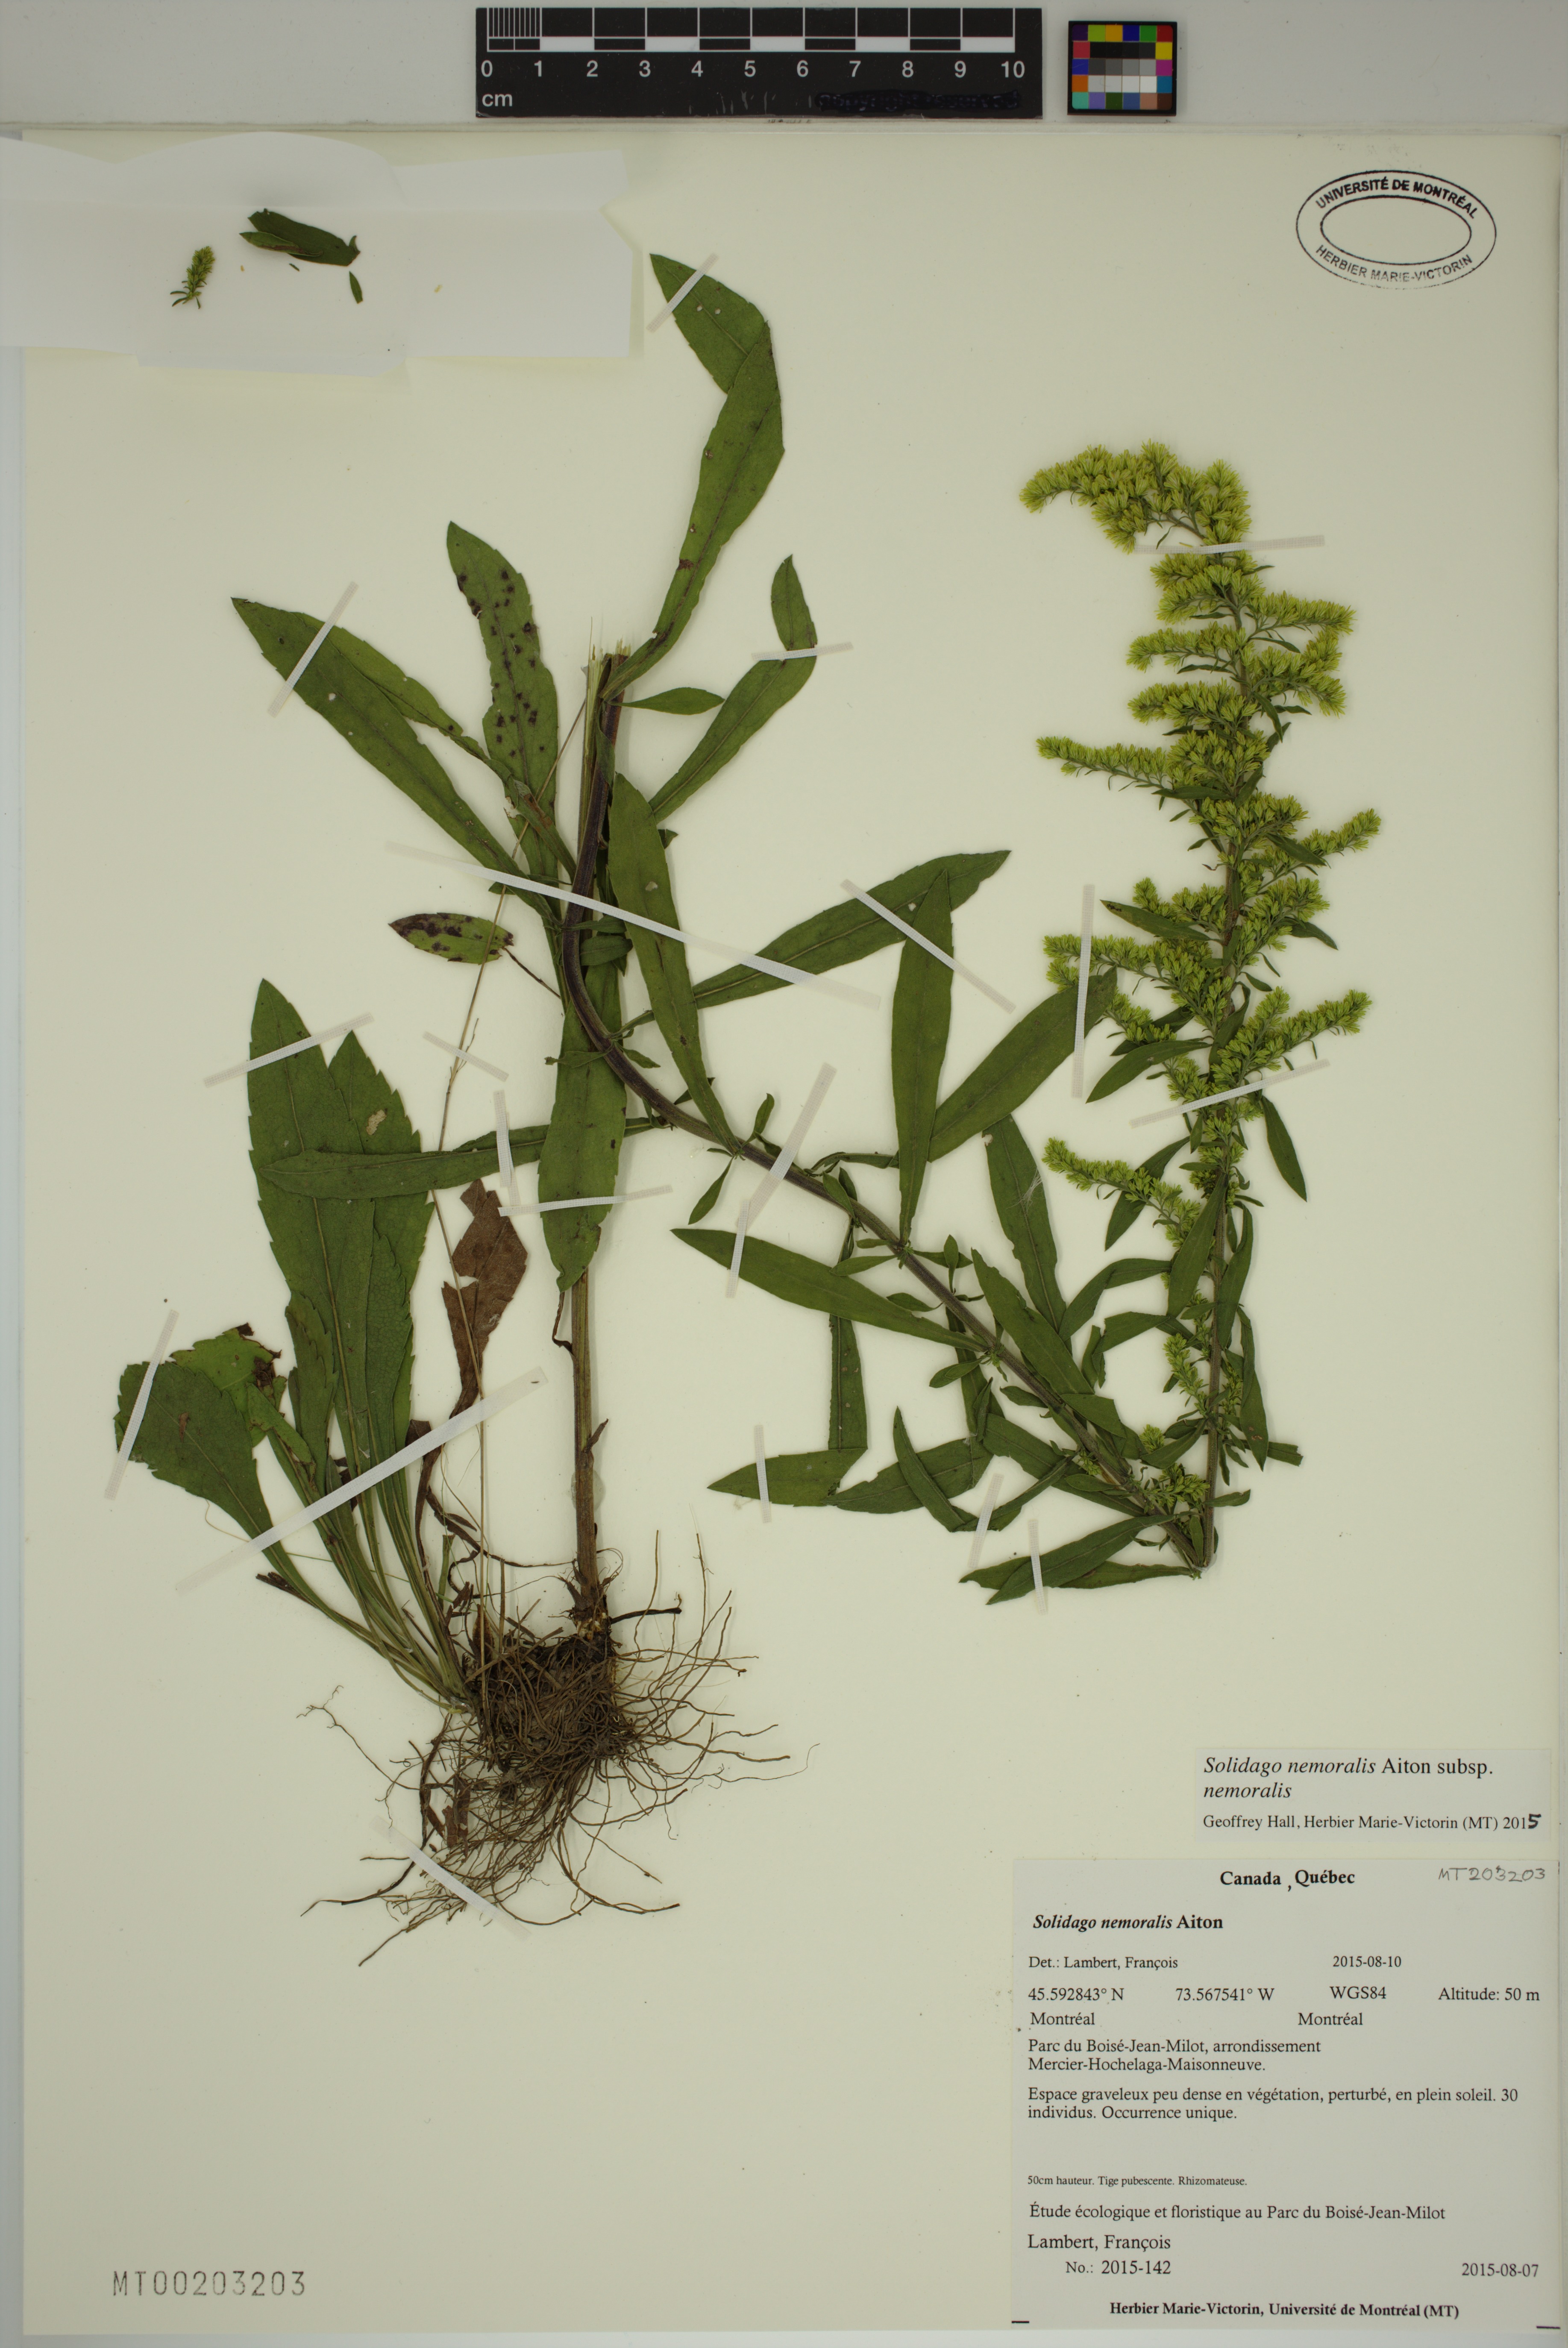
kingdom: Plantae
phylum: Tracheophyta
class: Magnoliopsida
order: Asterales
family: Asteraceae
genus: Solidago
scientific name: Solidago nemoralis
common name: Grey goldenrod
